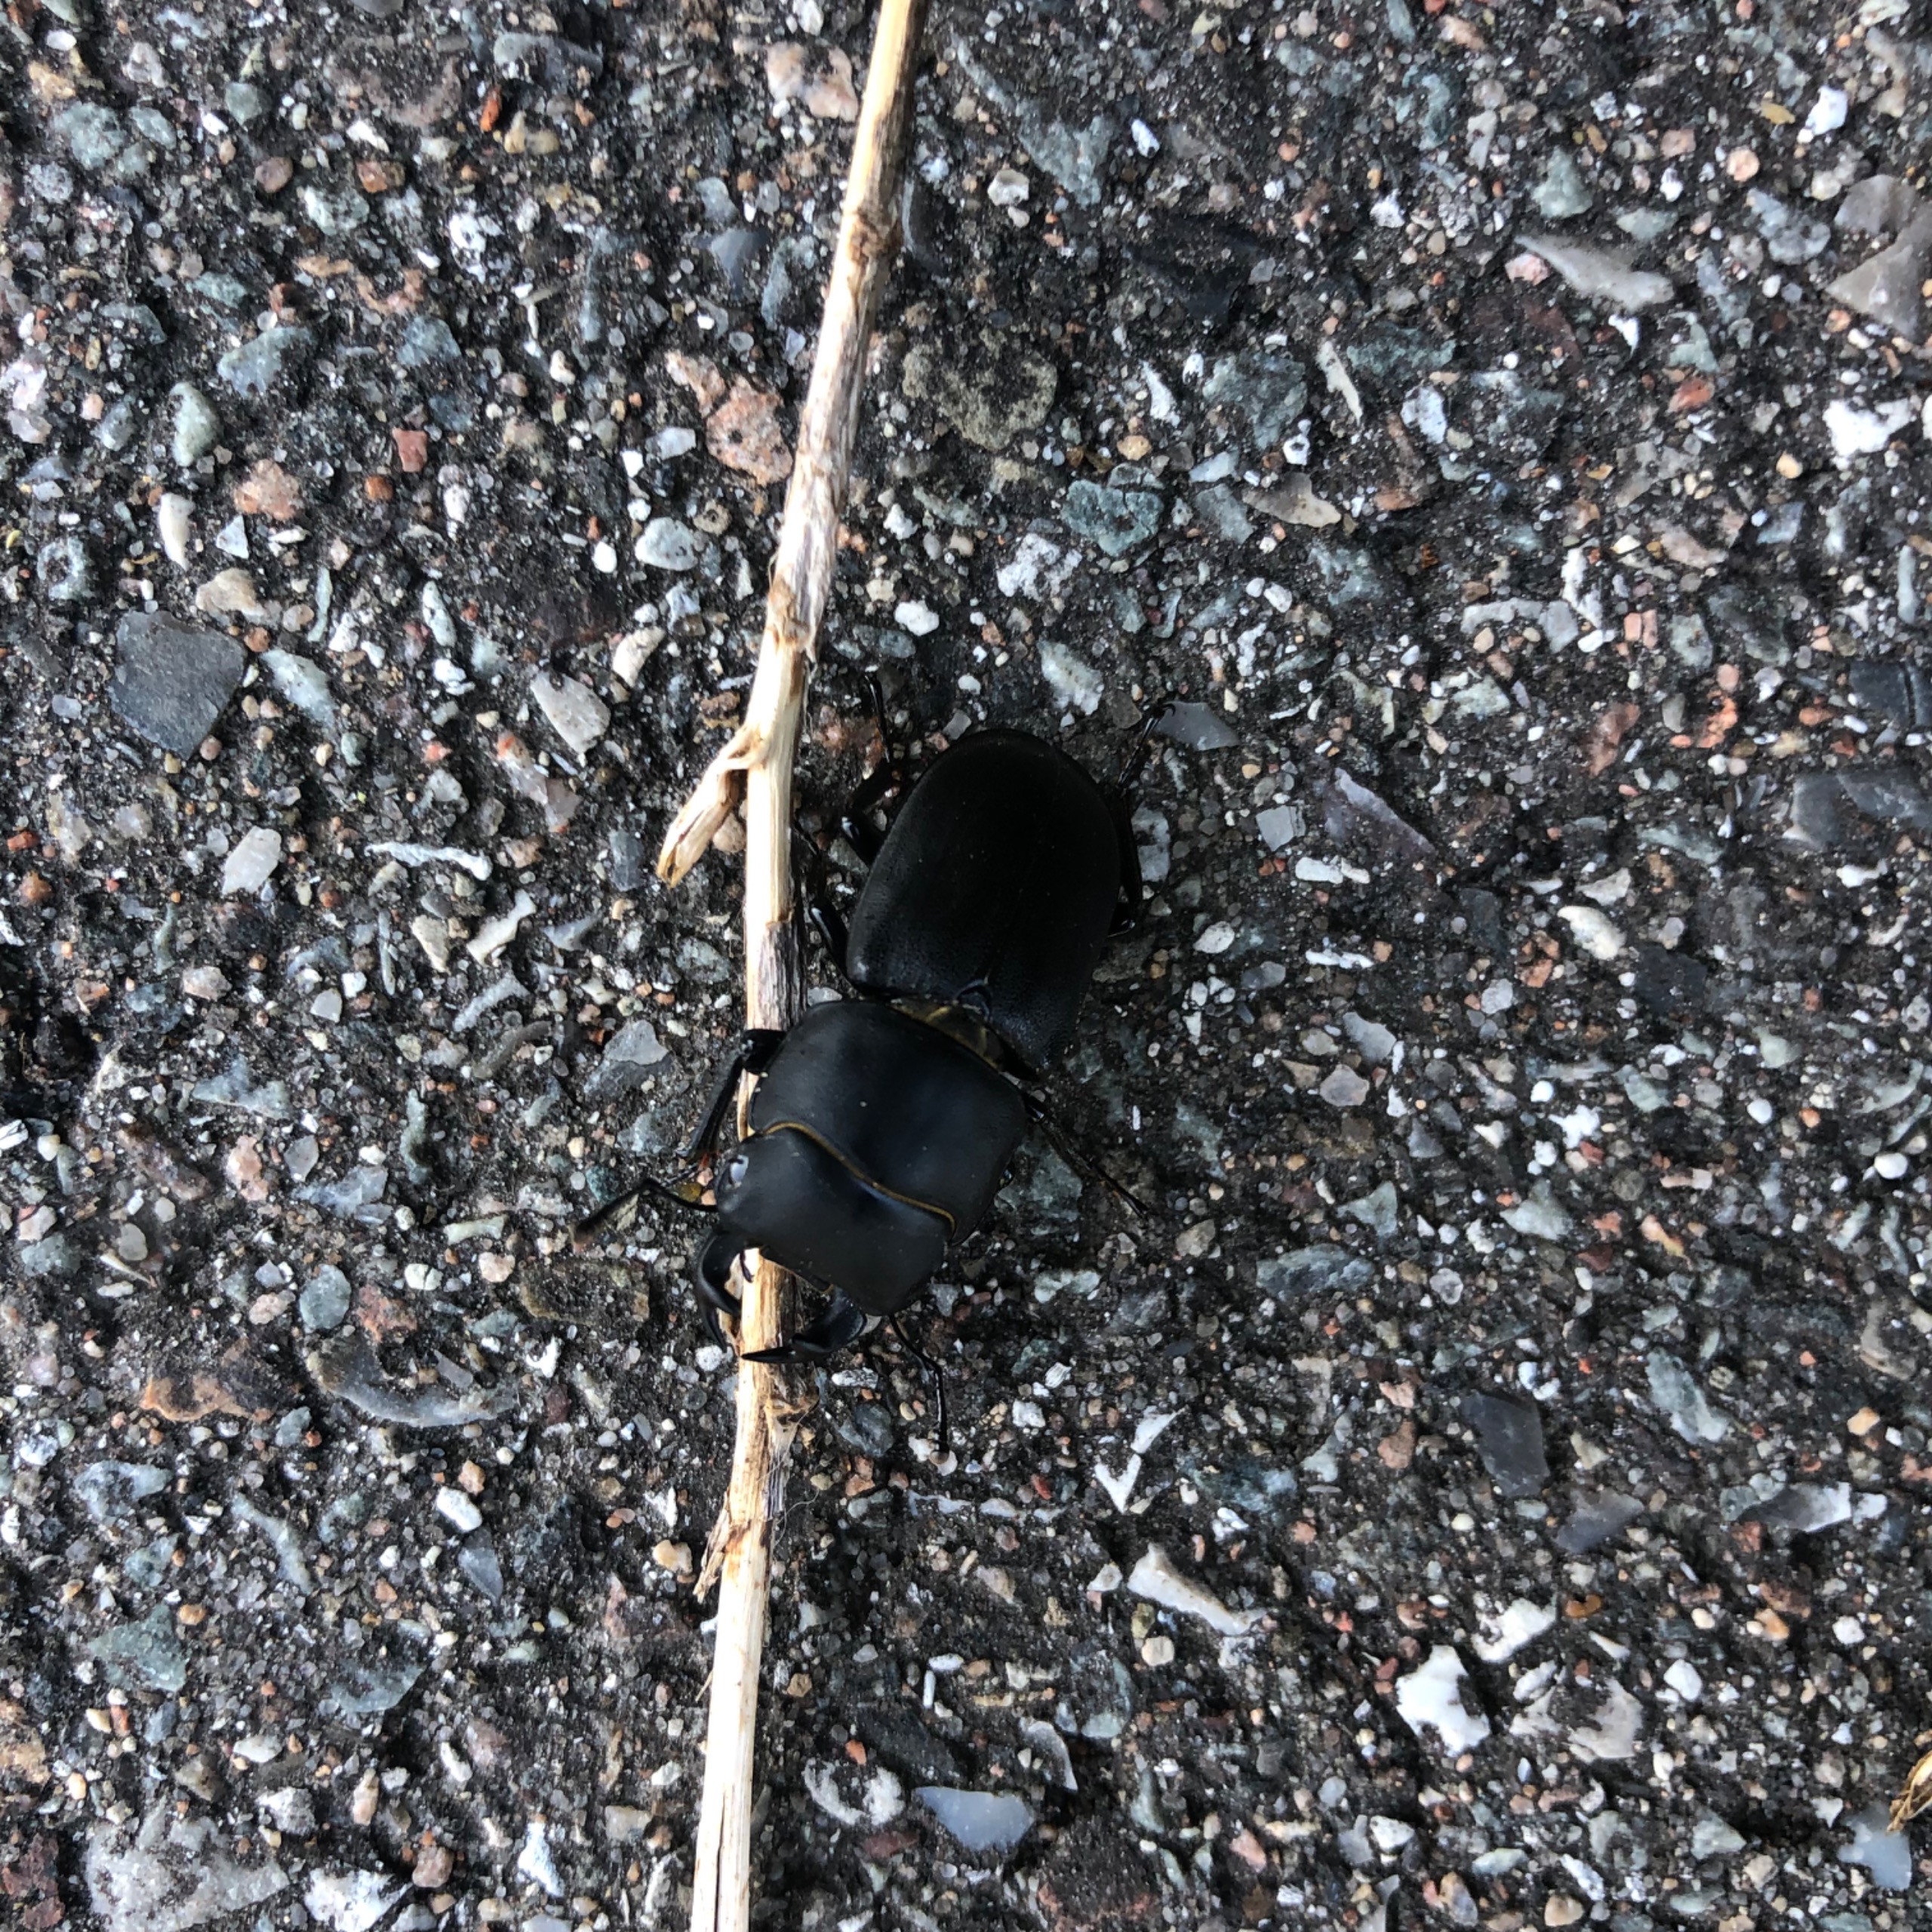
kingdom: Animalia
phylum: Arthropoda
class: Insecta
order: Coleoptera
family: Lucanidae
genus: Dorcus
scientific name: Dorcus parallelipipedus
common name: Bøghjort
